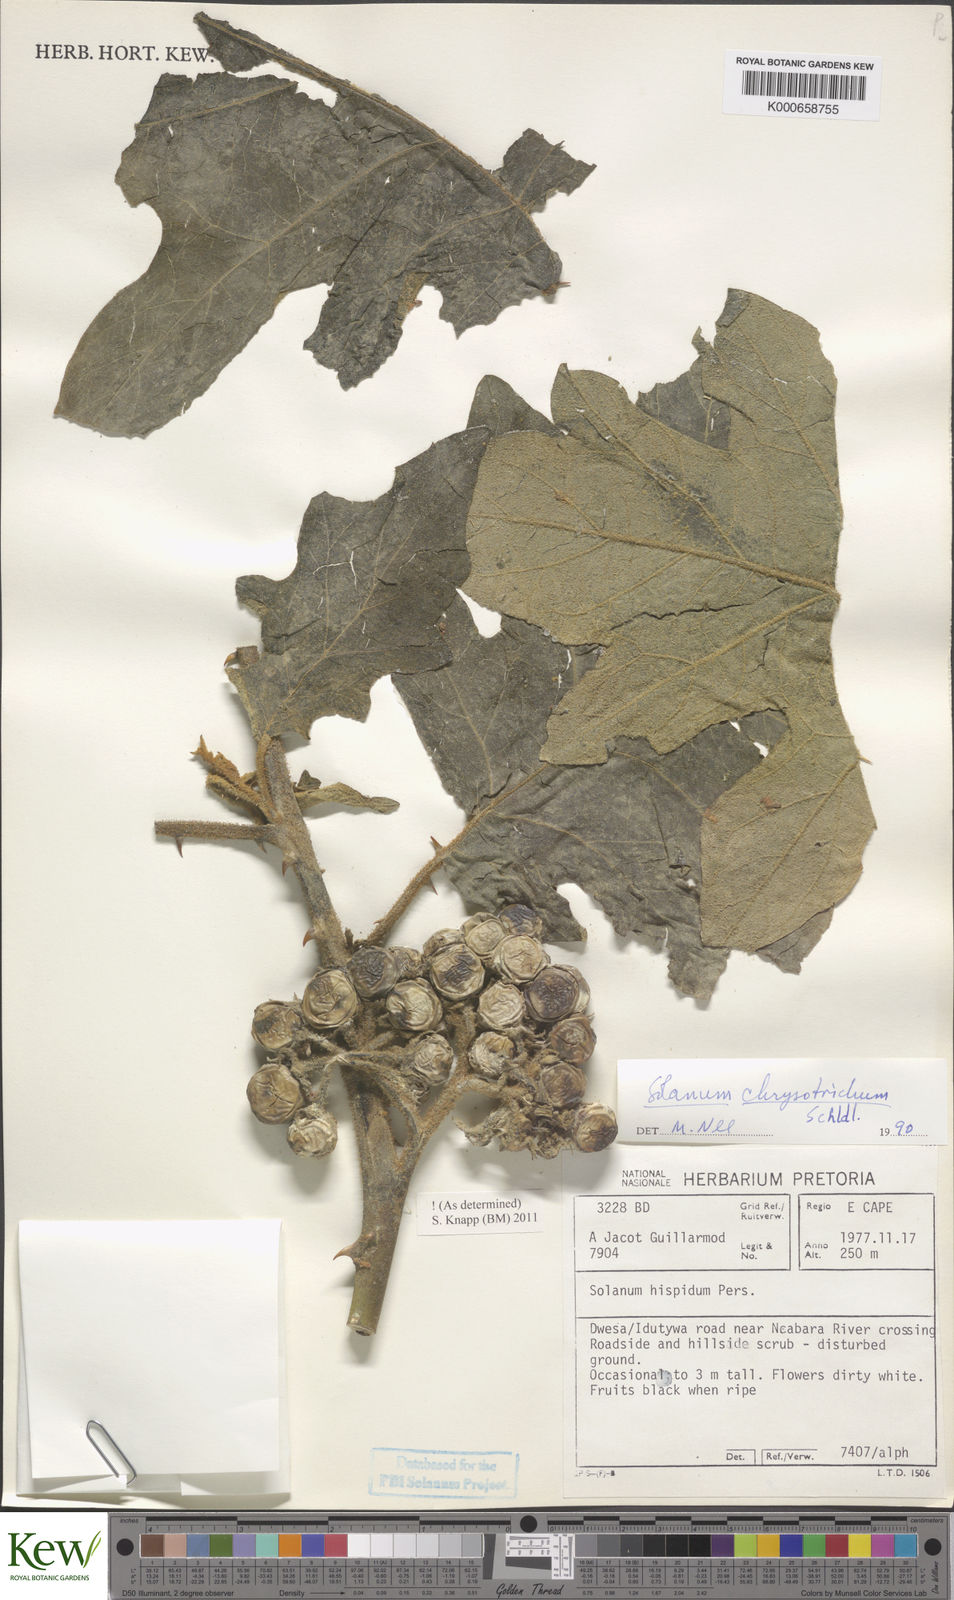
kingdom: Plantae
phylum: Tracheophyta
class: Magnoliopsida
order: Solanales
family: Solanaceae
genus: Solanum
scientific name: Solanum chrysotrichum
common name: Nightshade
